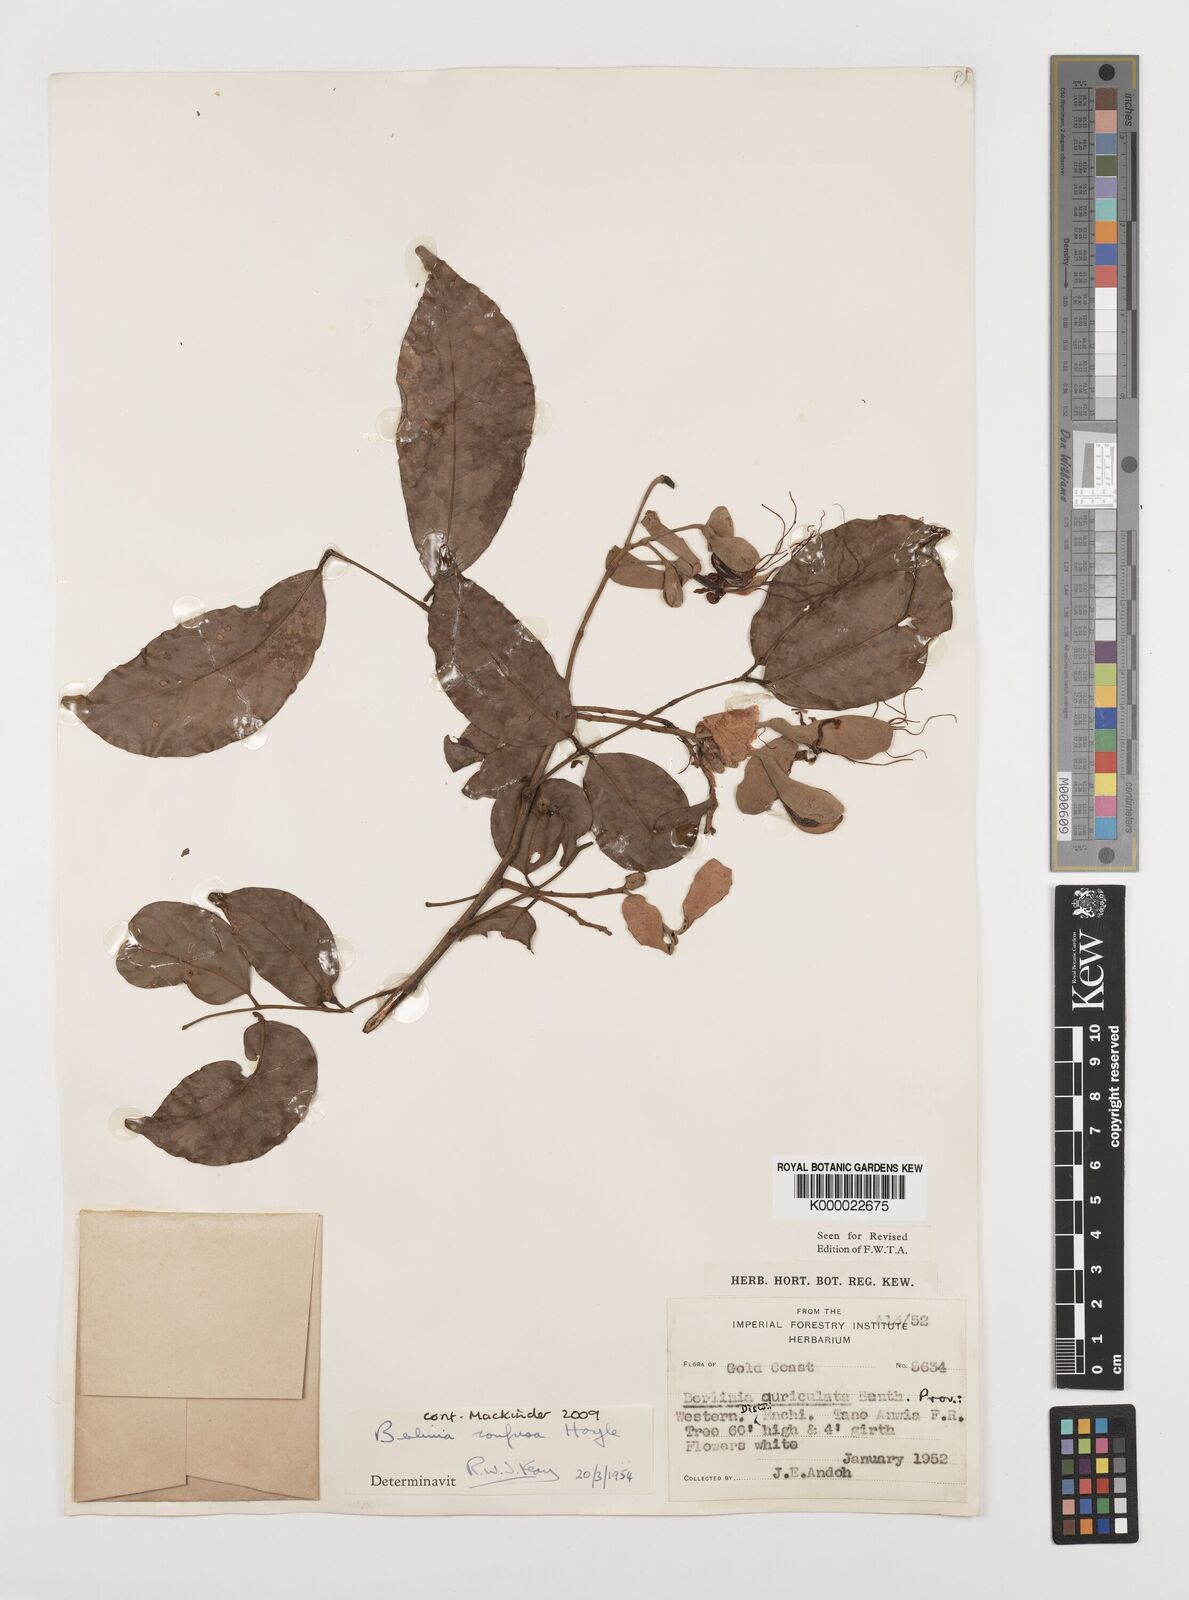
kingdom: Plantae
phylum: Tracheophyta
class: Magnoliopsida
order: Fabales
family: Fabaceae
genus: Berlinia
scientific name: Berlinia confusa
